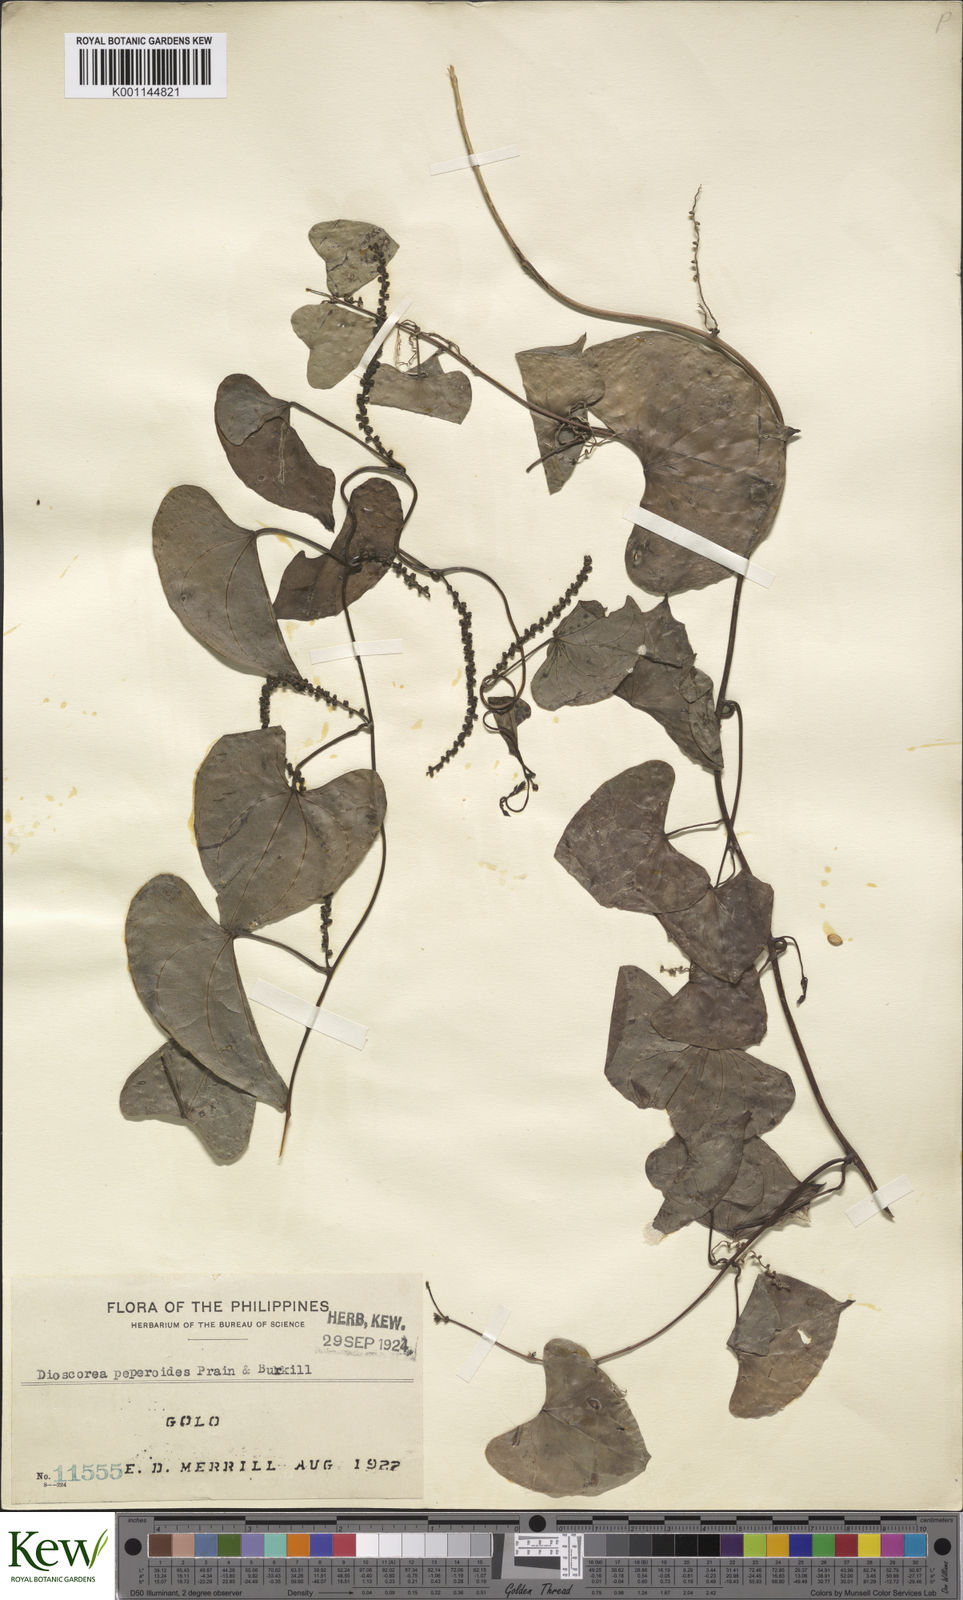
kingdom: Plantae
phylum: Tracheophyta
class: Liliopsida
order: Dioscoreales
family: Dioscoreaceae
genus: Dioscorea
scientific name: Dioscorea peperoides
